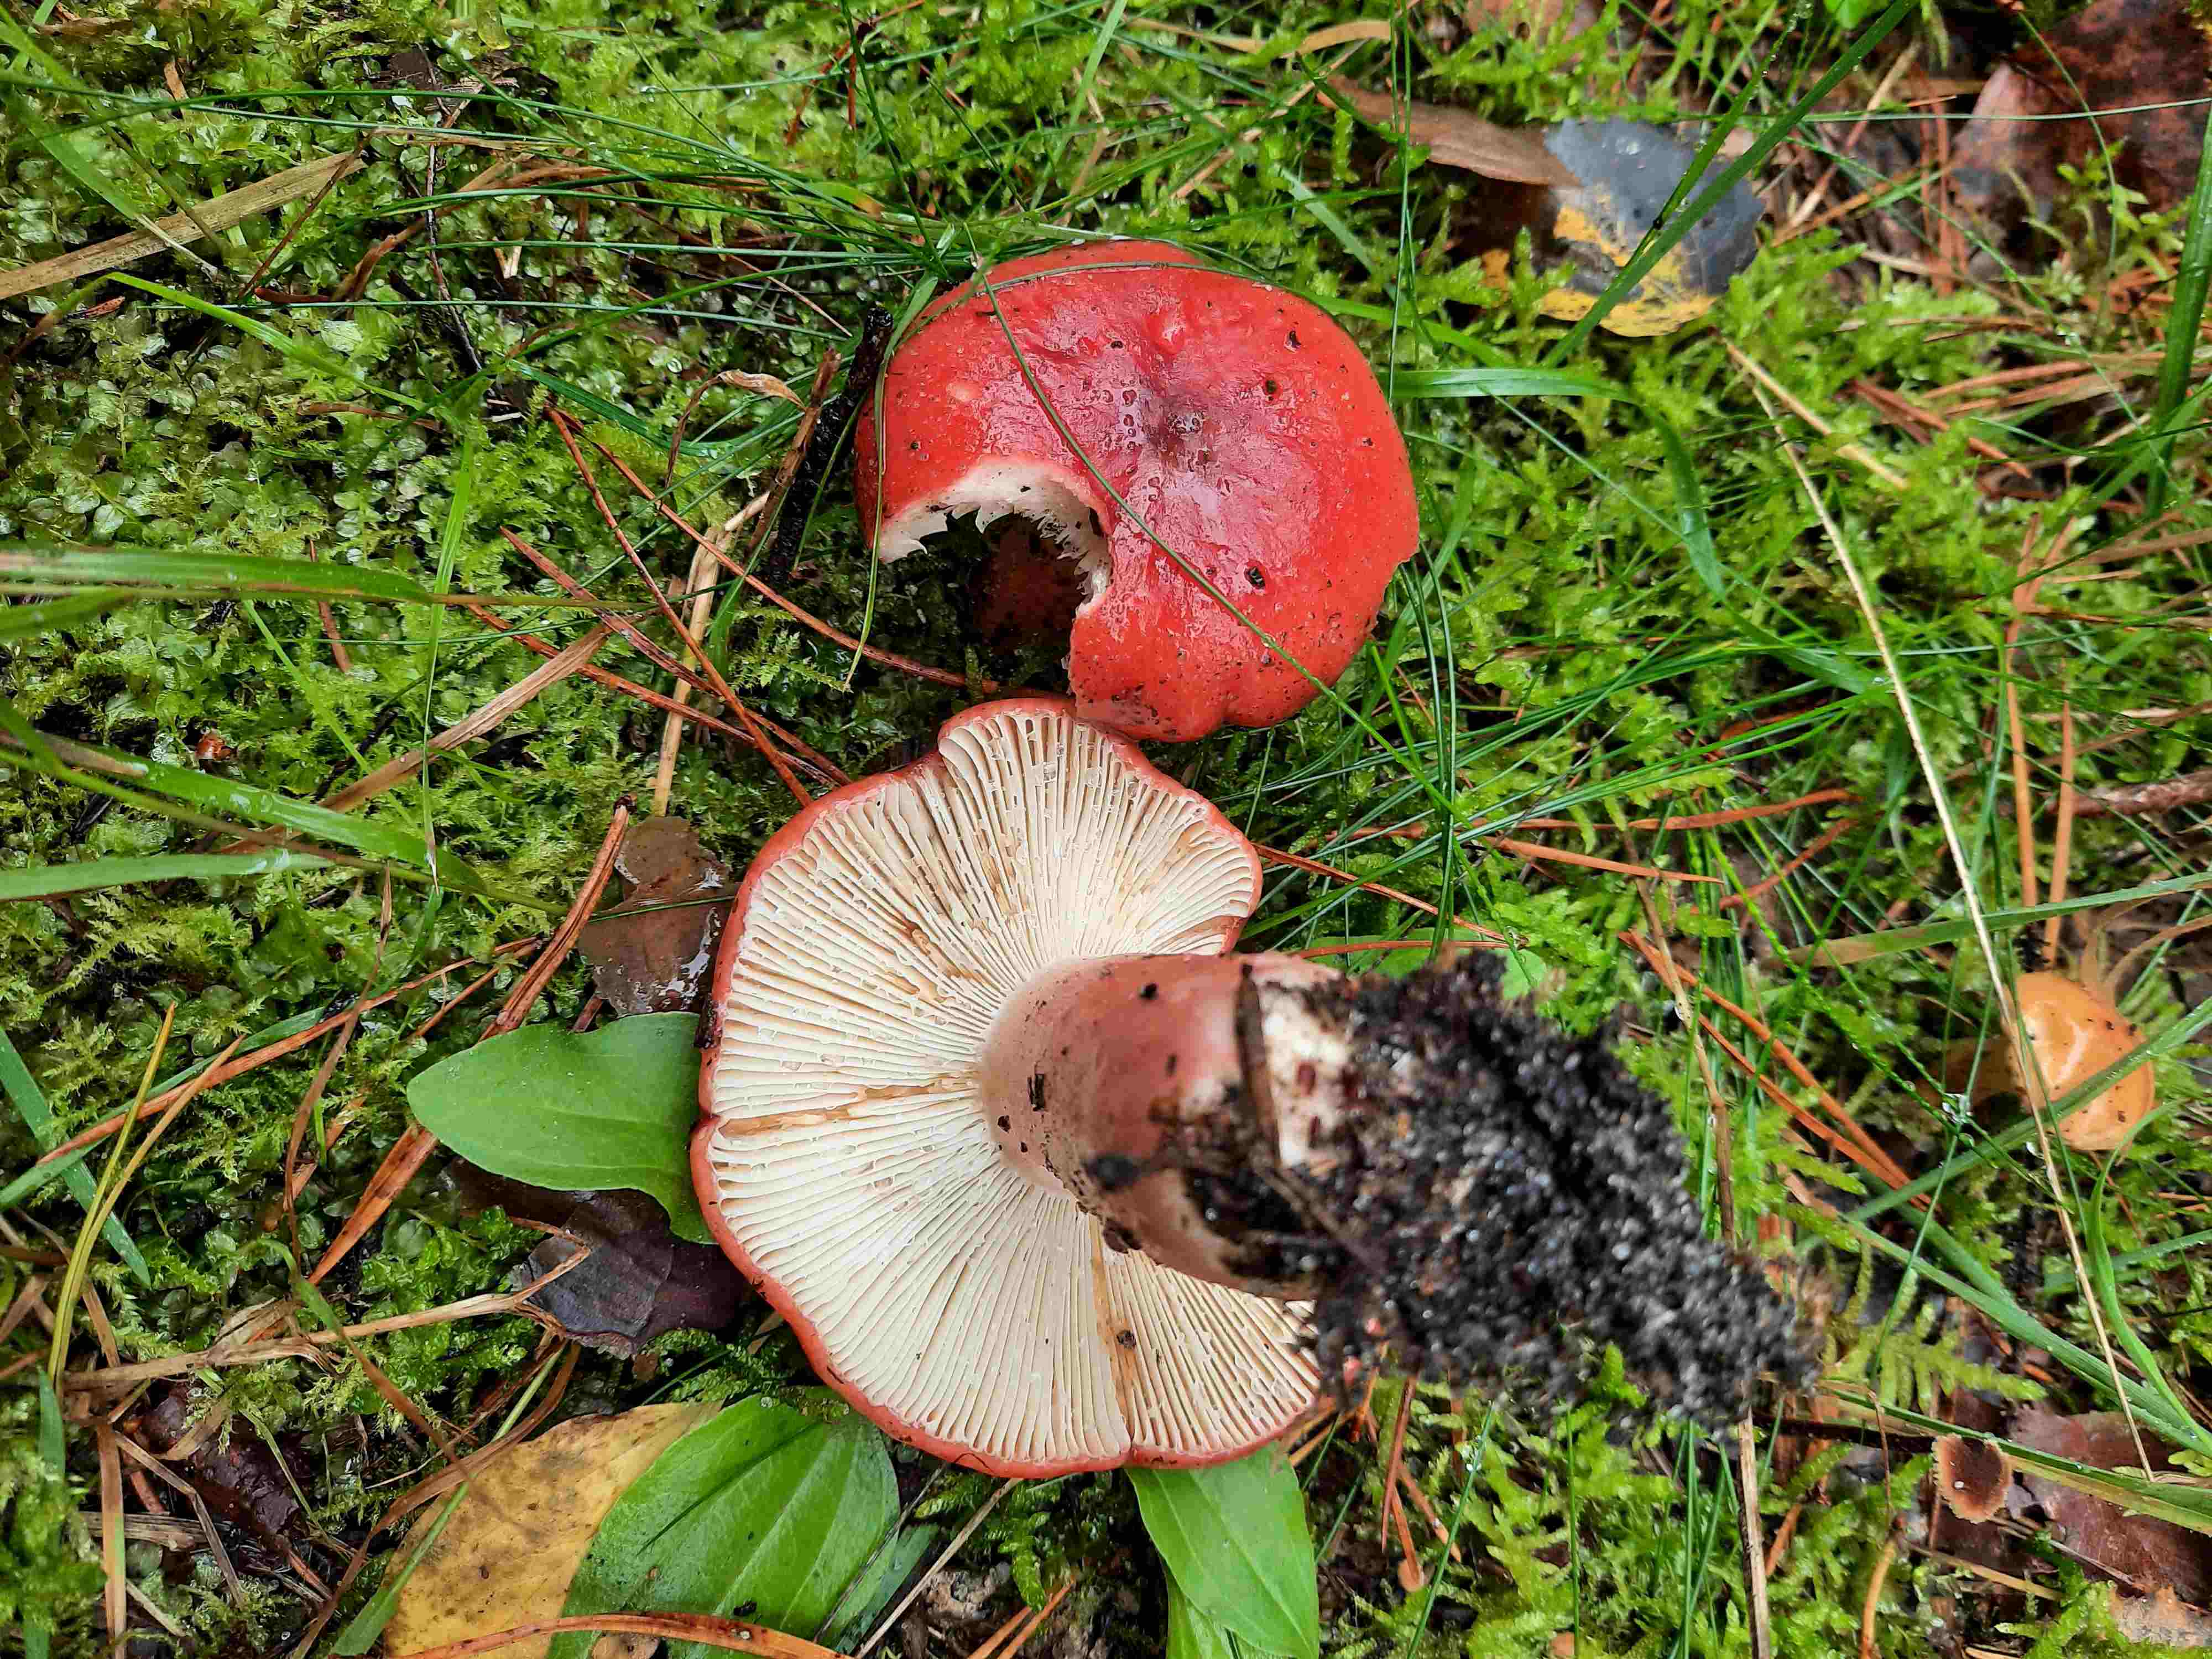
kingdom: Fungi
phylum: Basidiomycota
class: Agaricomycetes
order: Russulales
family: Russulaceae
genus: Russula
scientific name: Russula sanguinea
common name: blodrød skørhat
